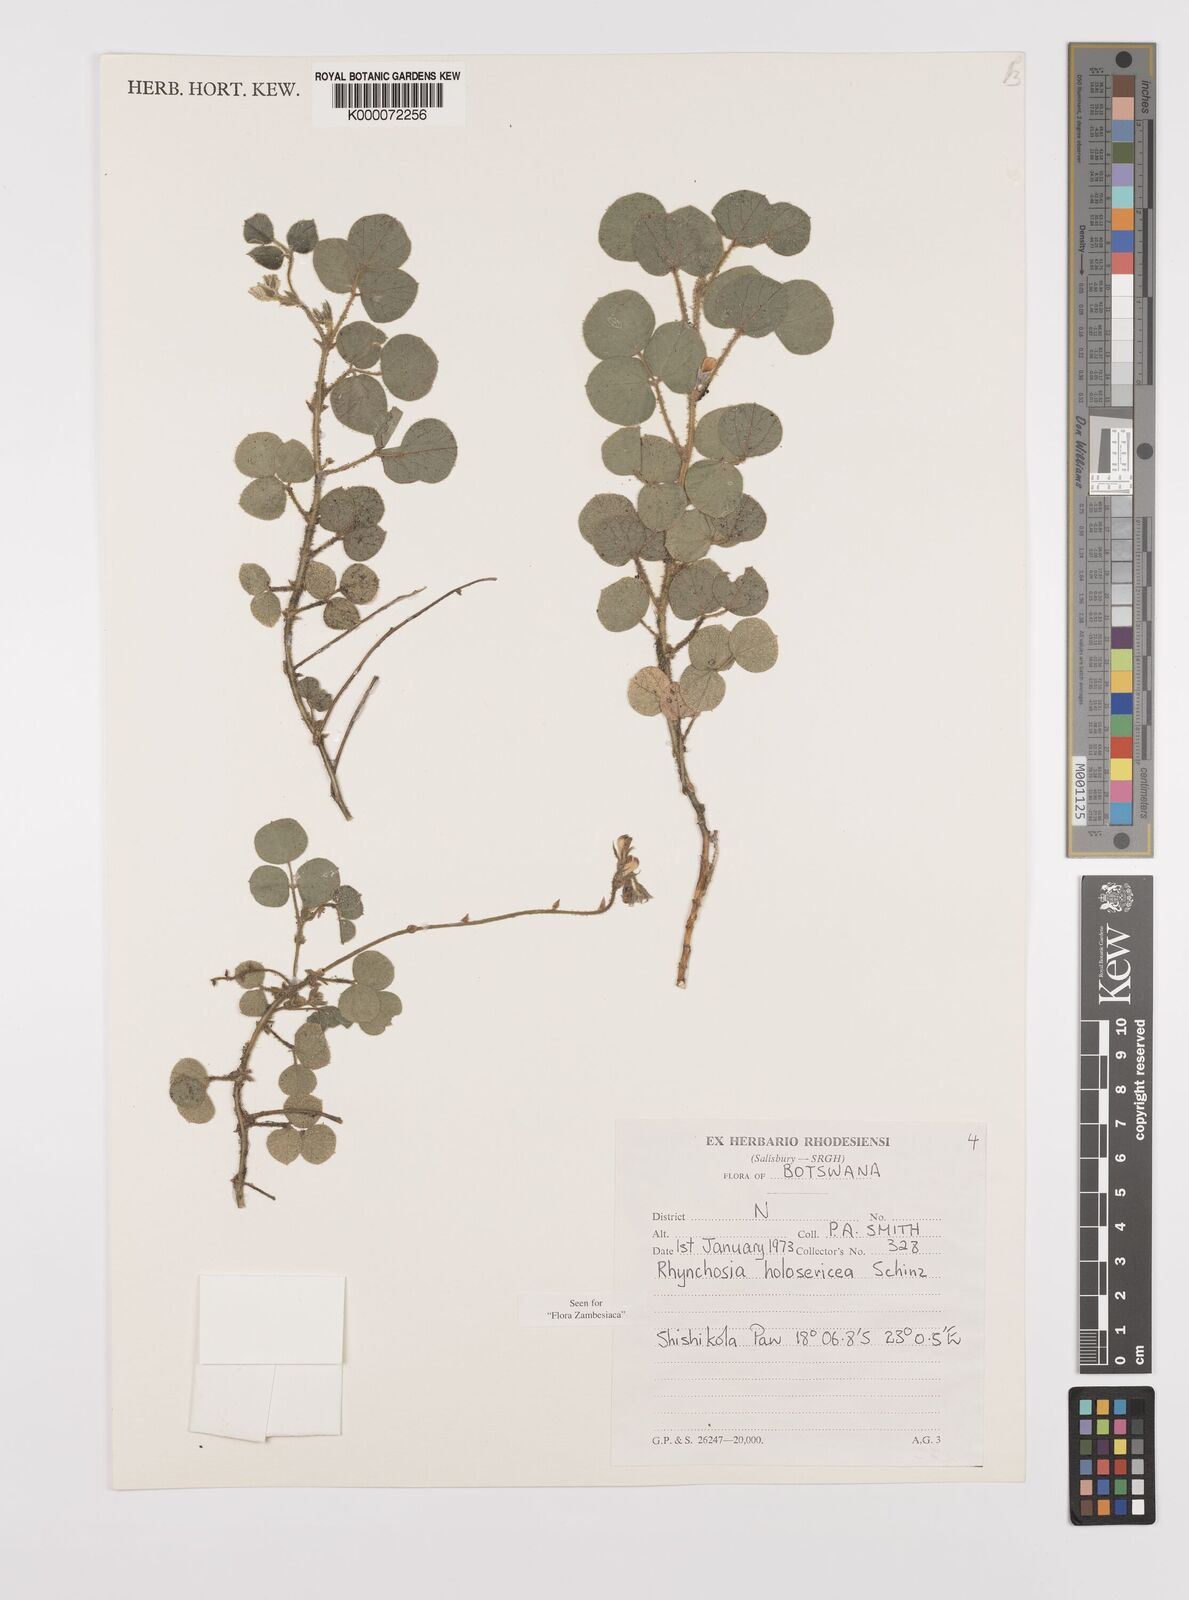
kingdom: Plantae
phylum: Tracheophyta
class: Magnoliopsida
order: Fabales
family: Fabaceae
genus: Rhynchosia
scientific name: Rhynchosia holosericea
